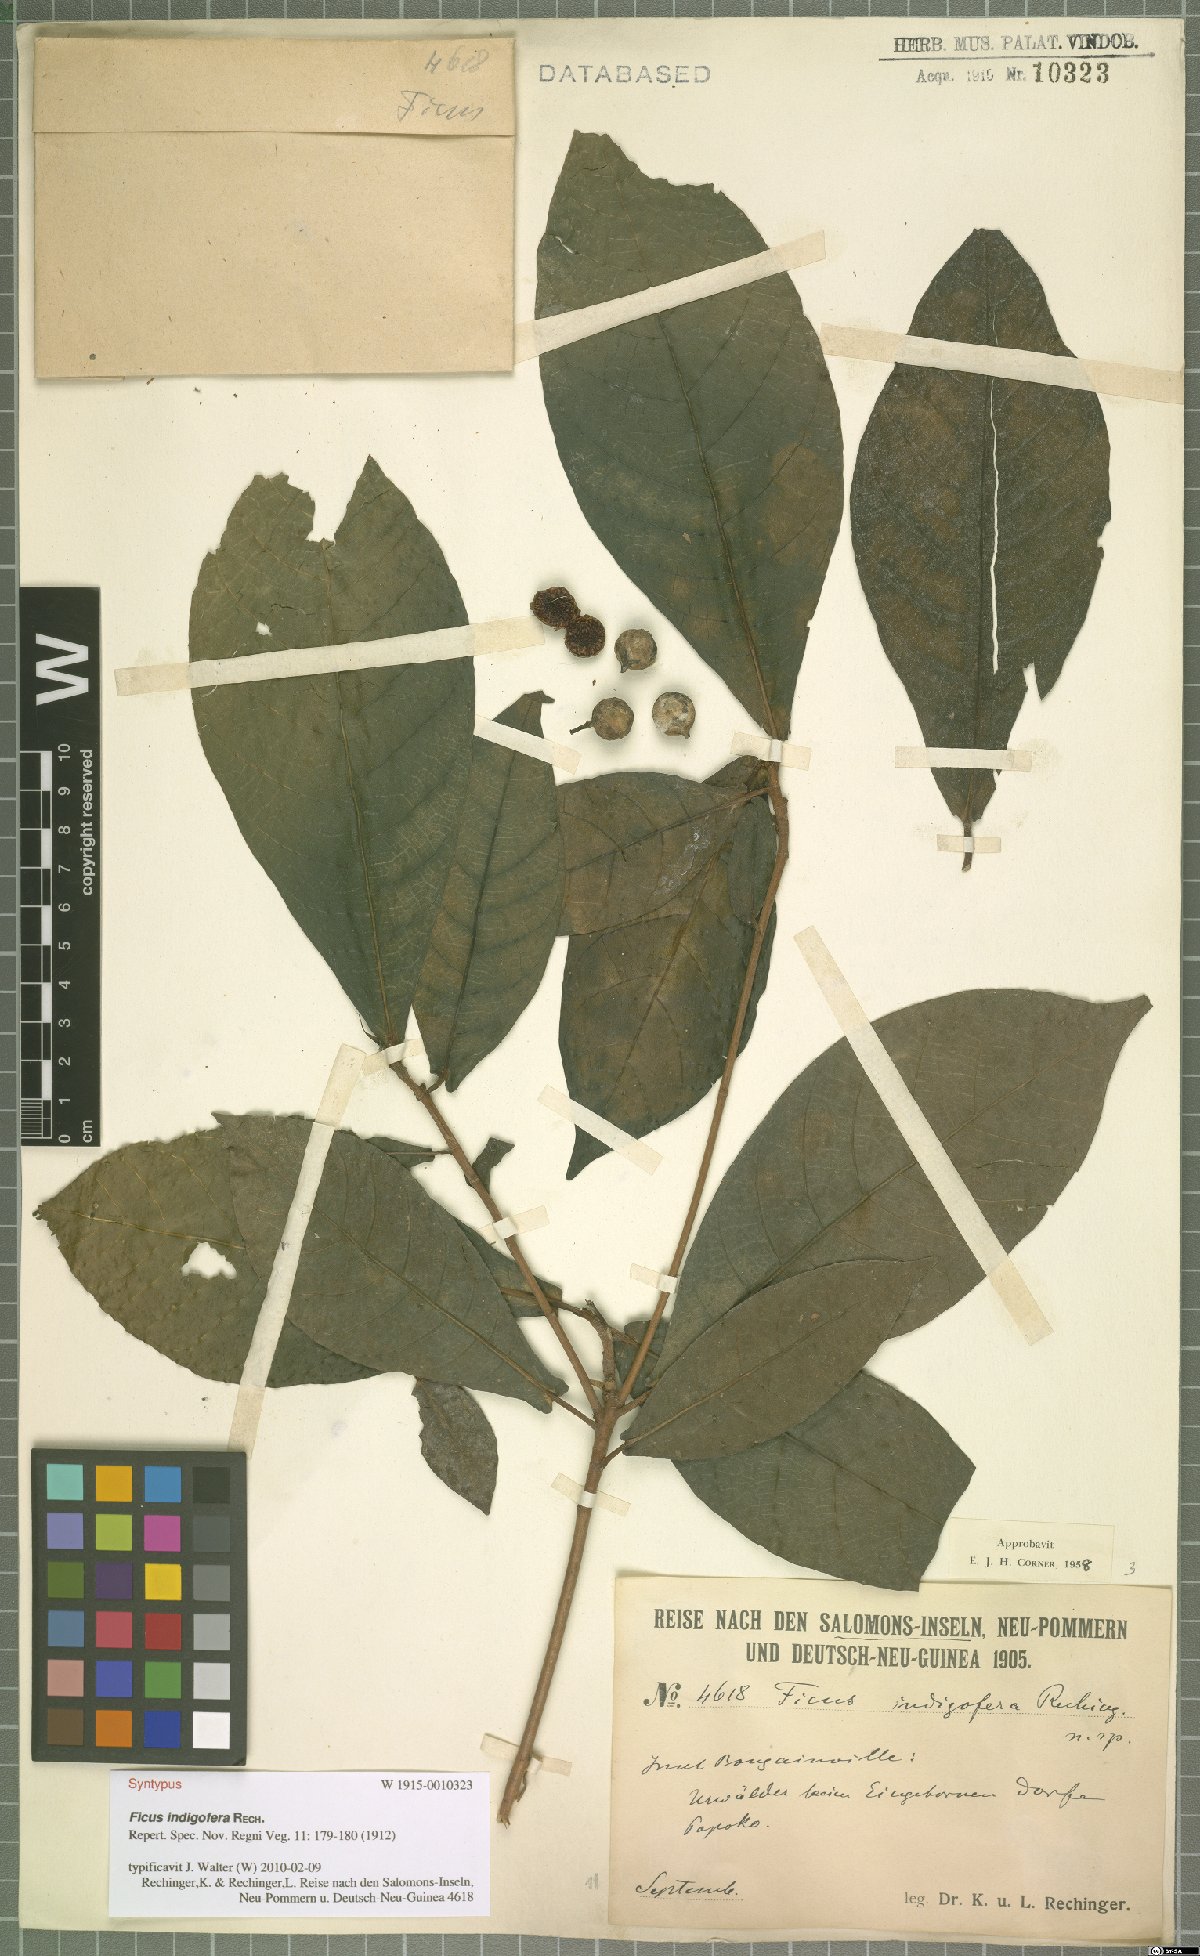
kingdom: Plantae
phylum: Tracheophyta
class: Magnoliopsida
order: Rosales
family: Moraceae
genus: Ficus
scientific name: Ficus indigofera
